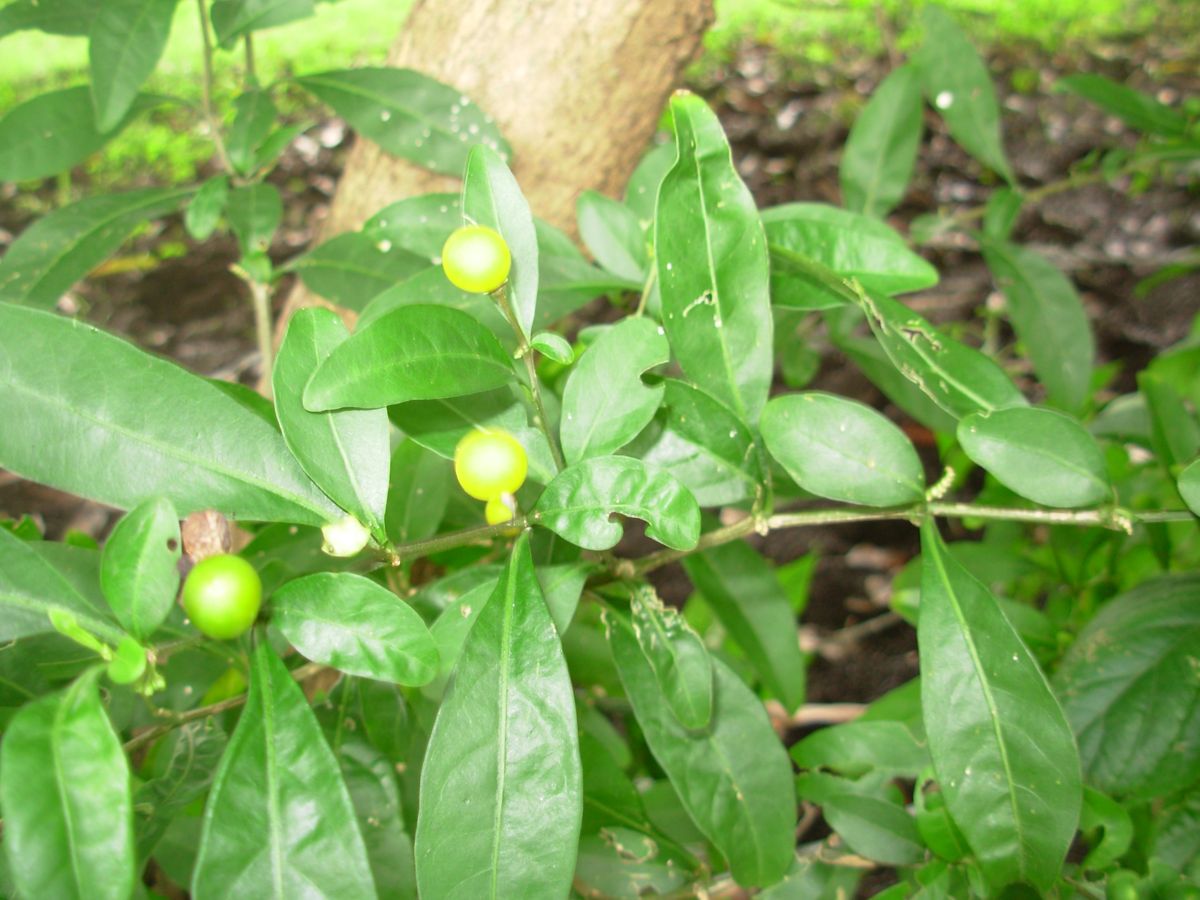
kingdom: Plantae
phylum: Tracheophyta
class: Magnoliopsida
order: Solanales
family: Solanaceae
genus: Solanum
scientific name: Solanum diphyllum
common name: Twoleaf nightshade
